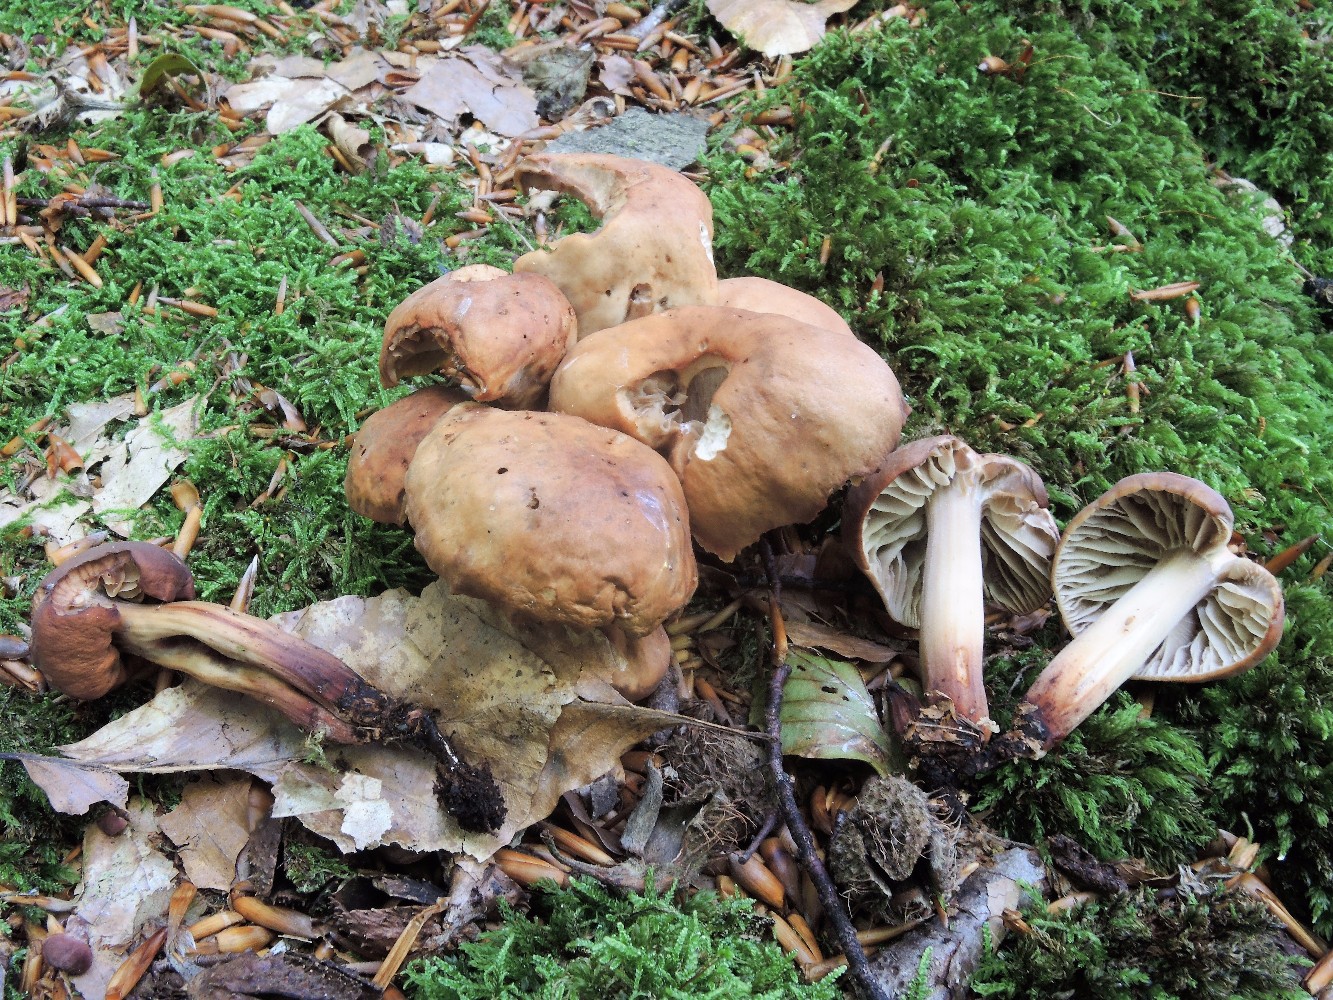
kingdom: Fungi
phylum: Basidiomycota
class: Agaricomycetes
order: Agaricales
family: Omphalotaceae
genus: Gymnopus
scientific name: Gymnopus fusipes
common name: tenstokket fladhat
